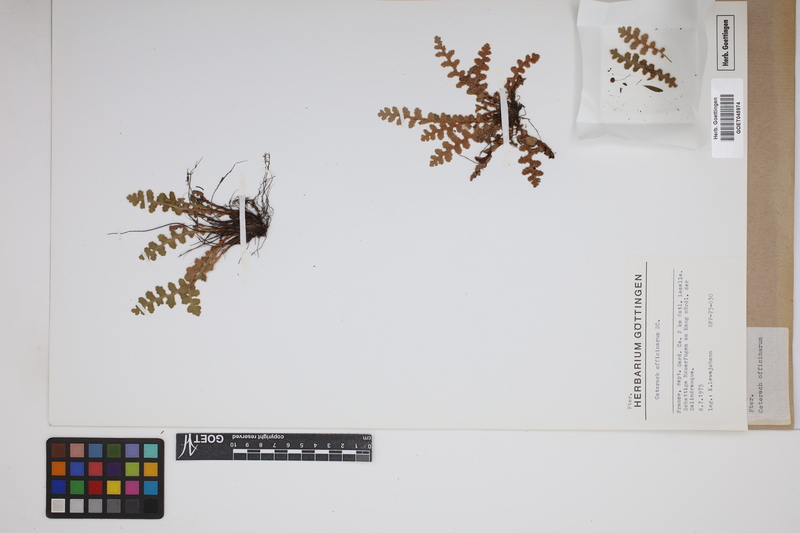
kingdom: Plantae
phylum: Tracheophyta
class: Polypodiopsida
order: Polypodiales
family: Aspleniaceae
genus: Asplenium
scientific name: Asplenium ceterach
